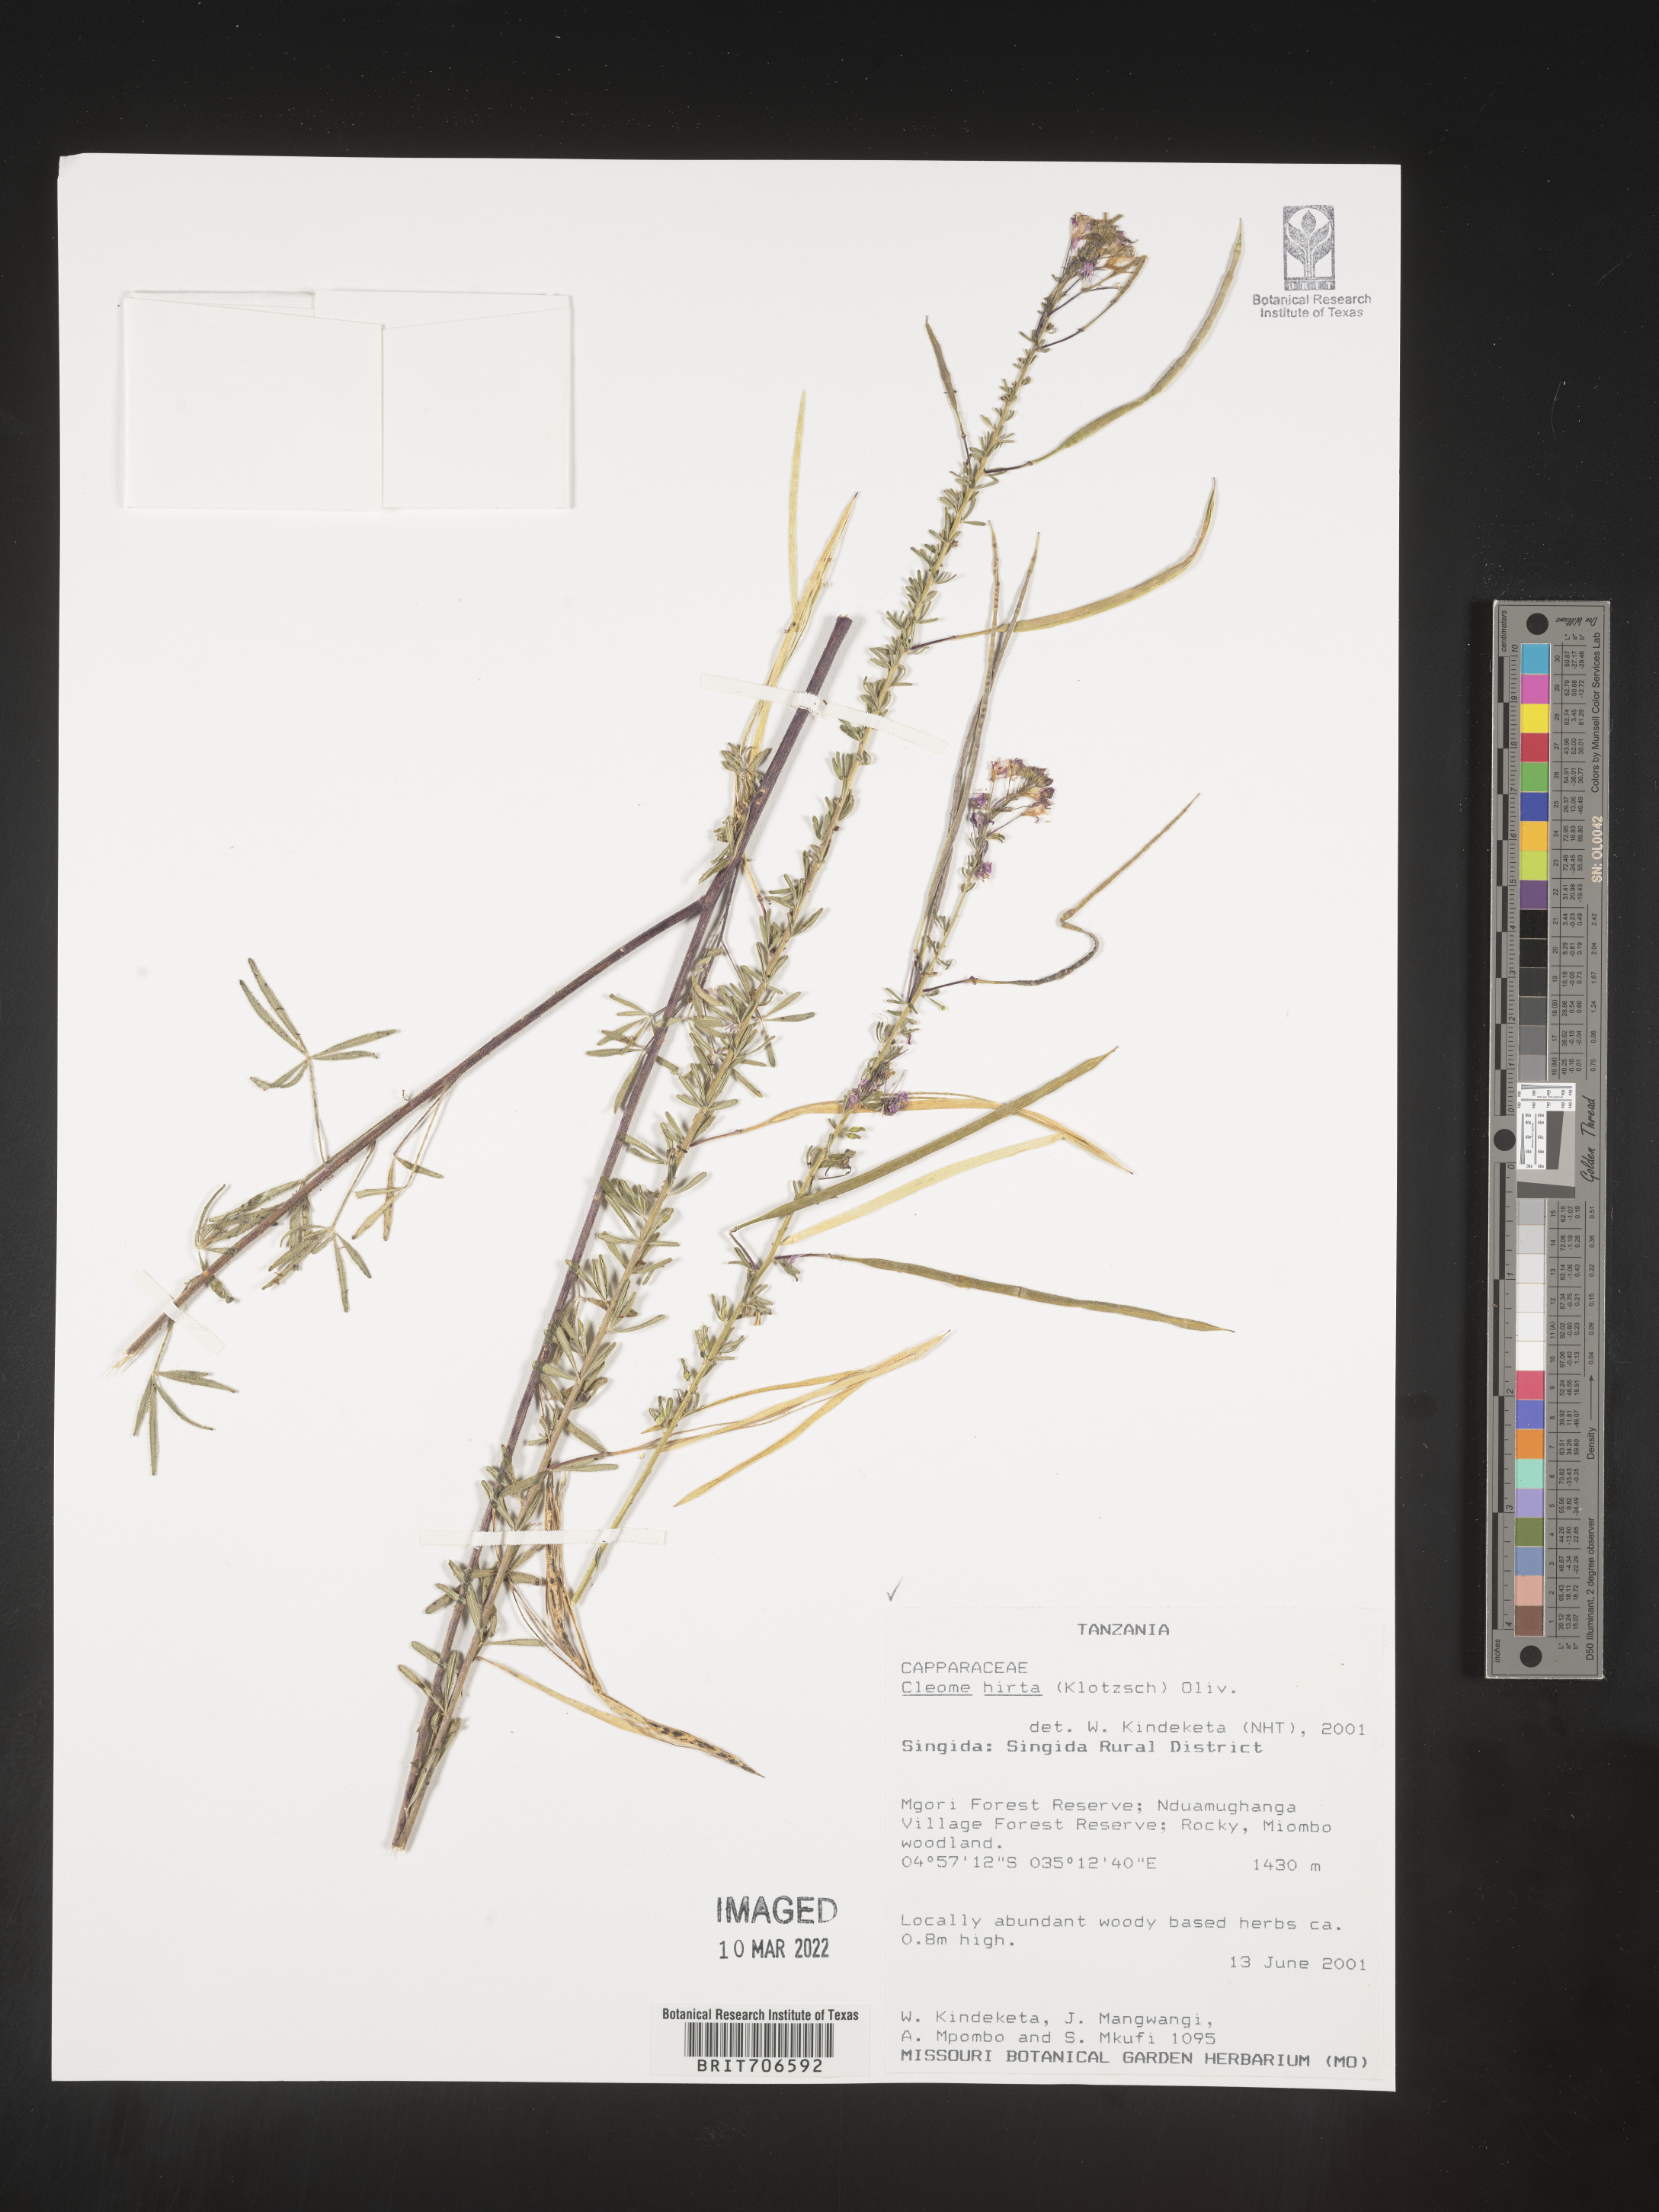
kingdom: Plantae
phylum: Tracheophyta
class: Magnoliopsida
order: Brassicales
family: Cleomaceae
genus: Cleome
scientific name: Cleome
